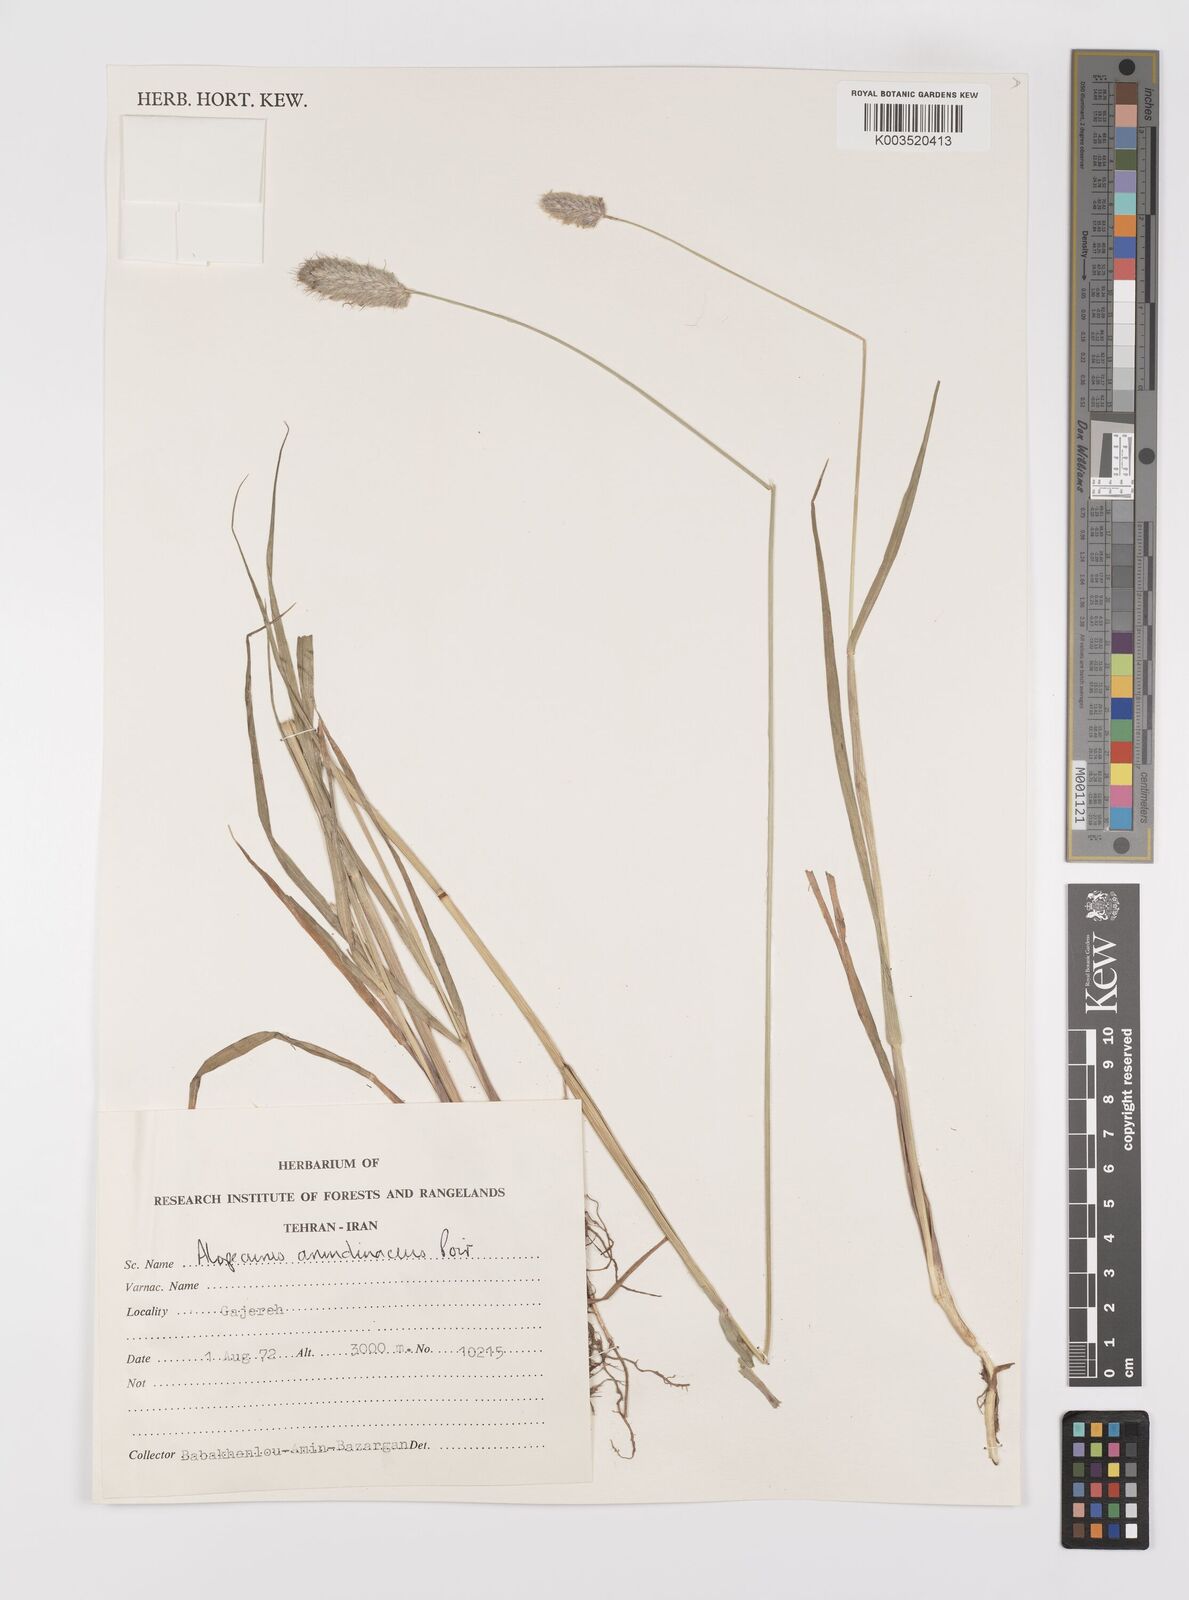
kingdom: Plantae
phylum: Tracheophyta
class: Liliopsida
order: Poales
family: Poaceae
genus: Alopecurus
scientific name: Alopecurus arundinaceus
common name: Creeping meadow foxtail
